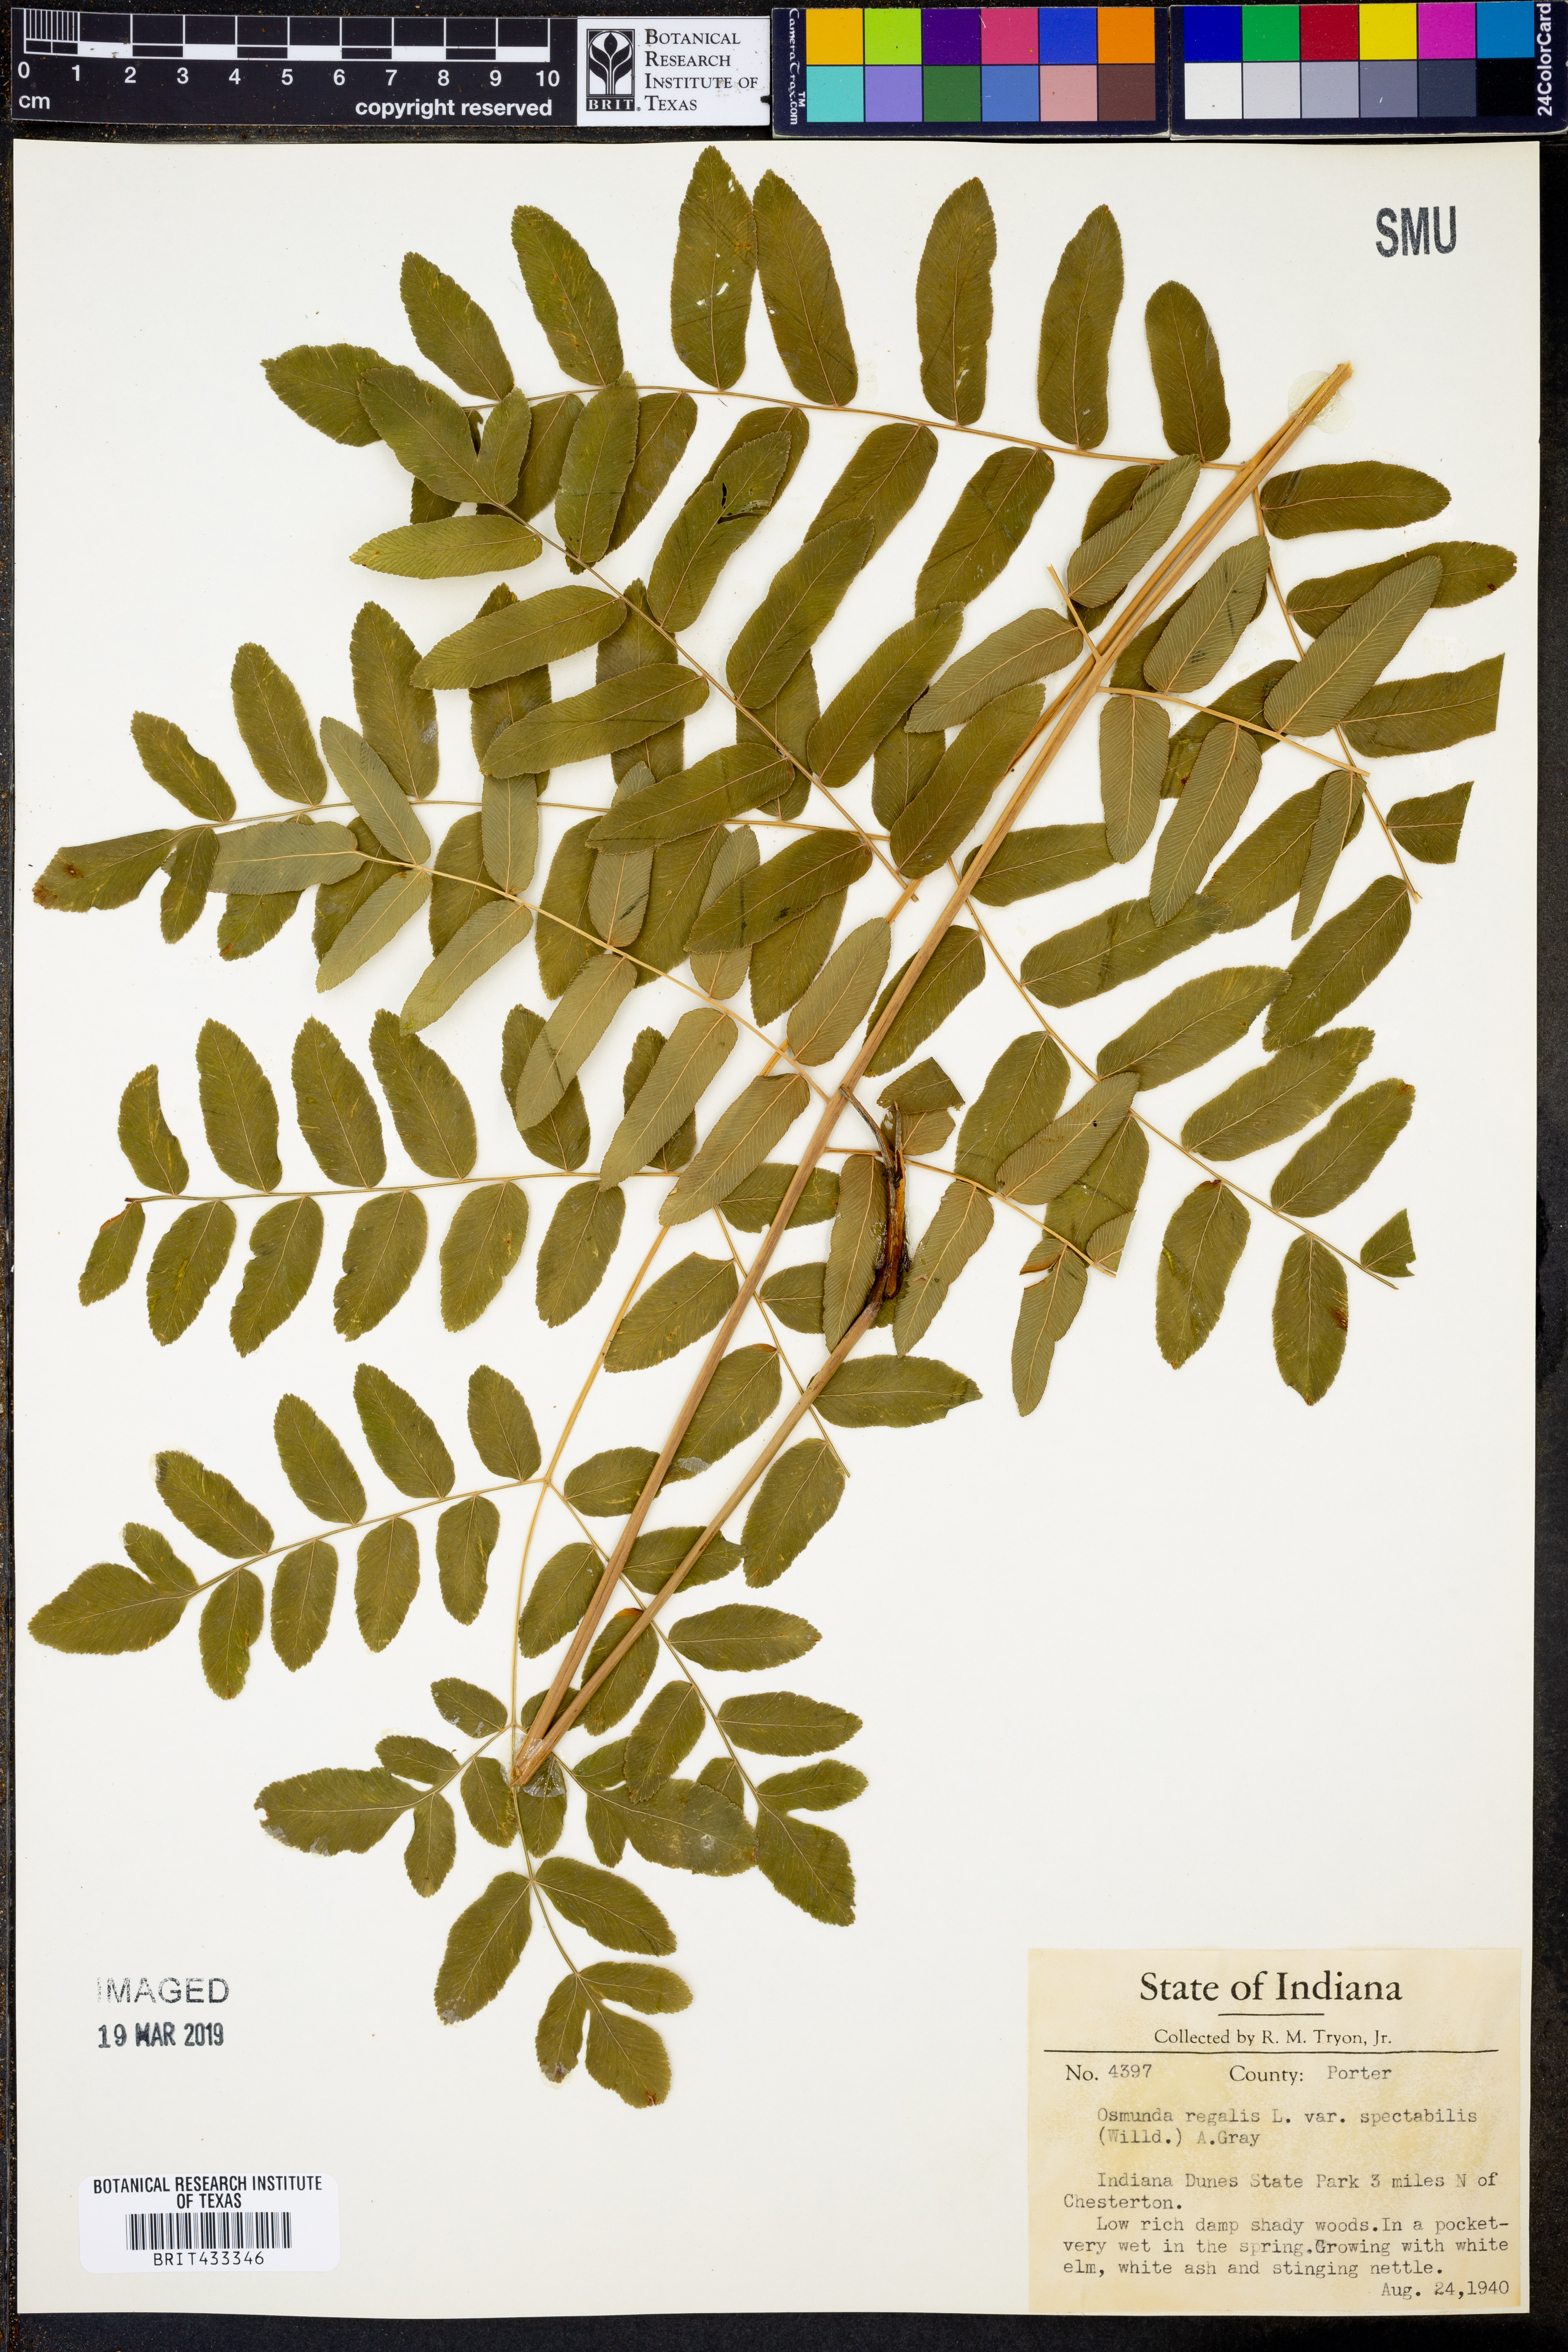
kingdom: Plantae
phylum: Tracheophyta
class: Polypodiopsida
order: Osmundales
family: Osmundaceae
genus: Osmunda
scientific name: Osmunda spectabilis
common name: American royal fern
